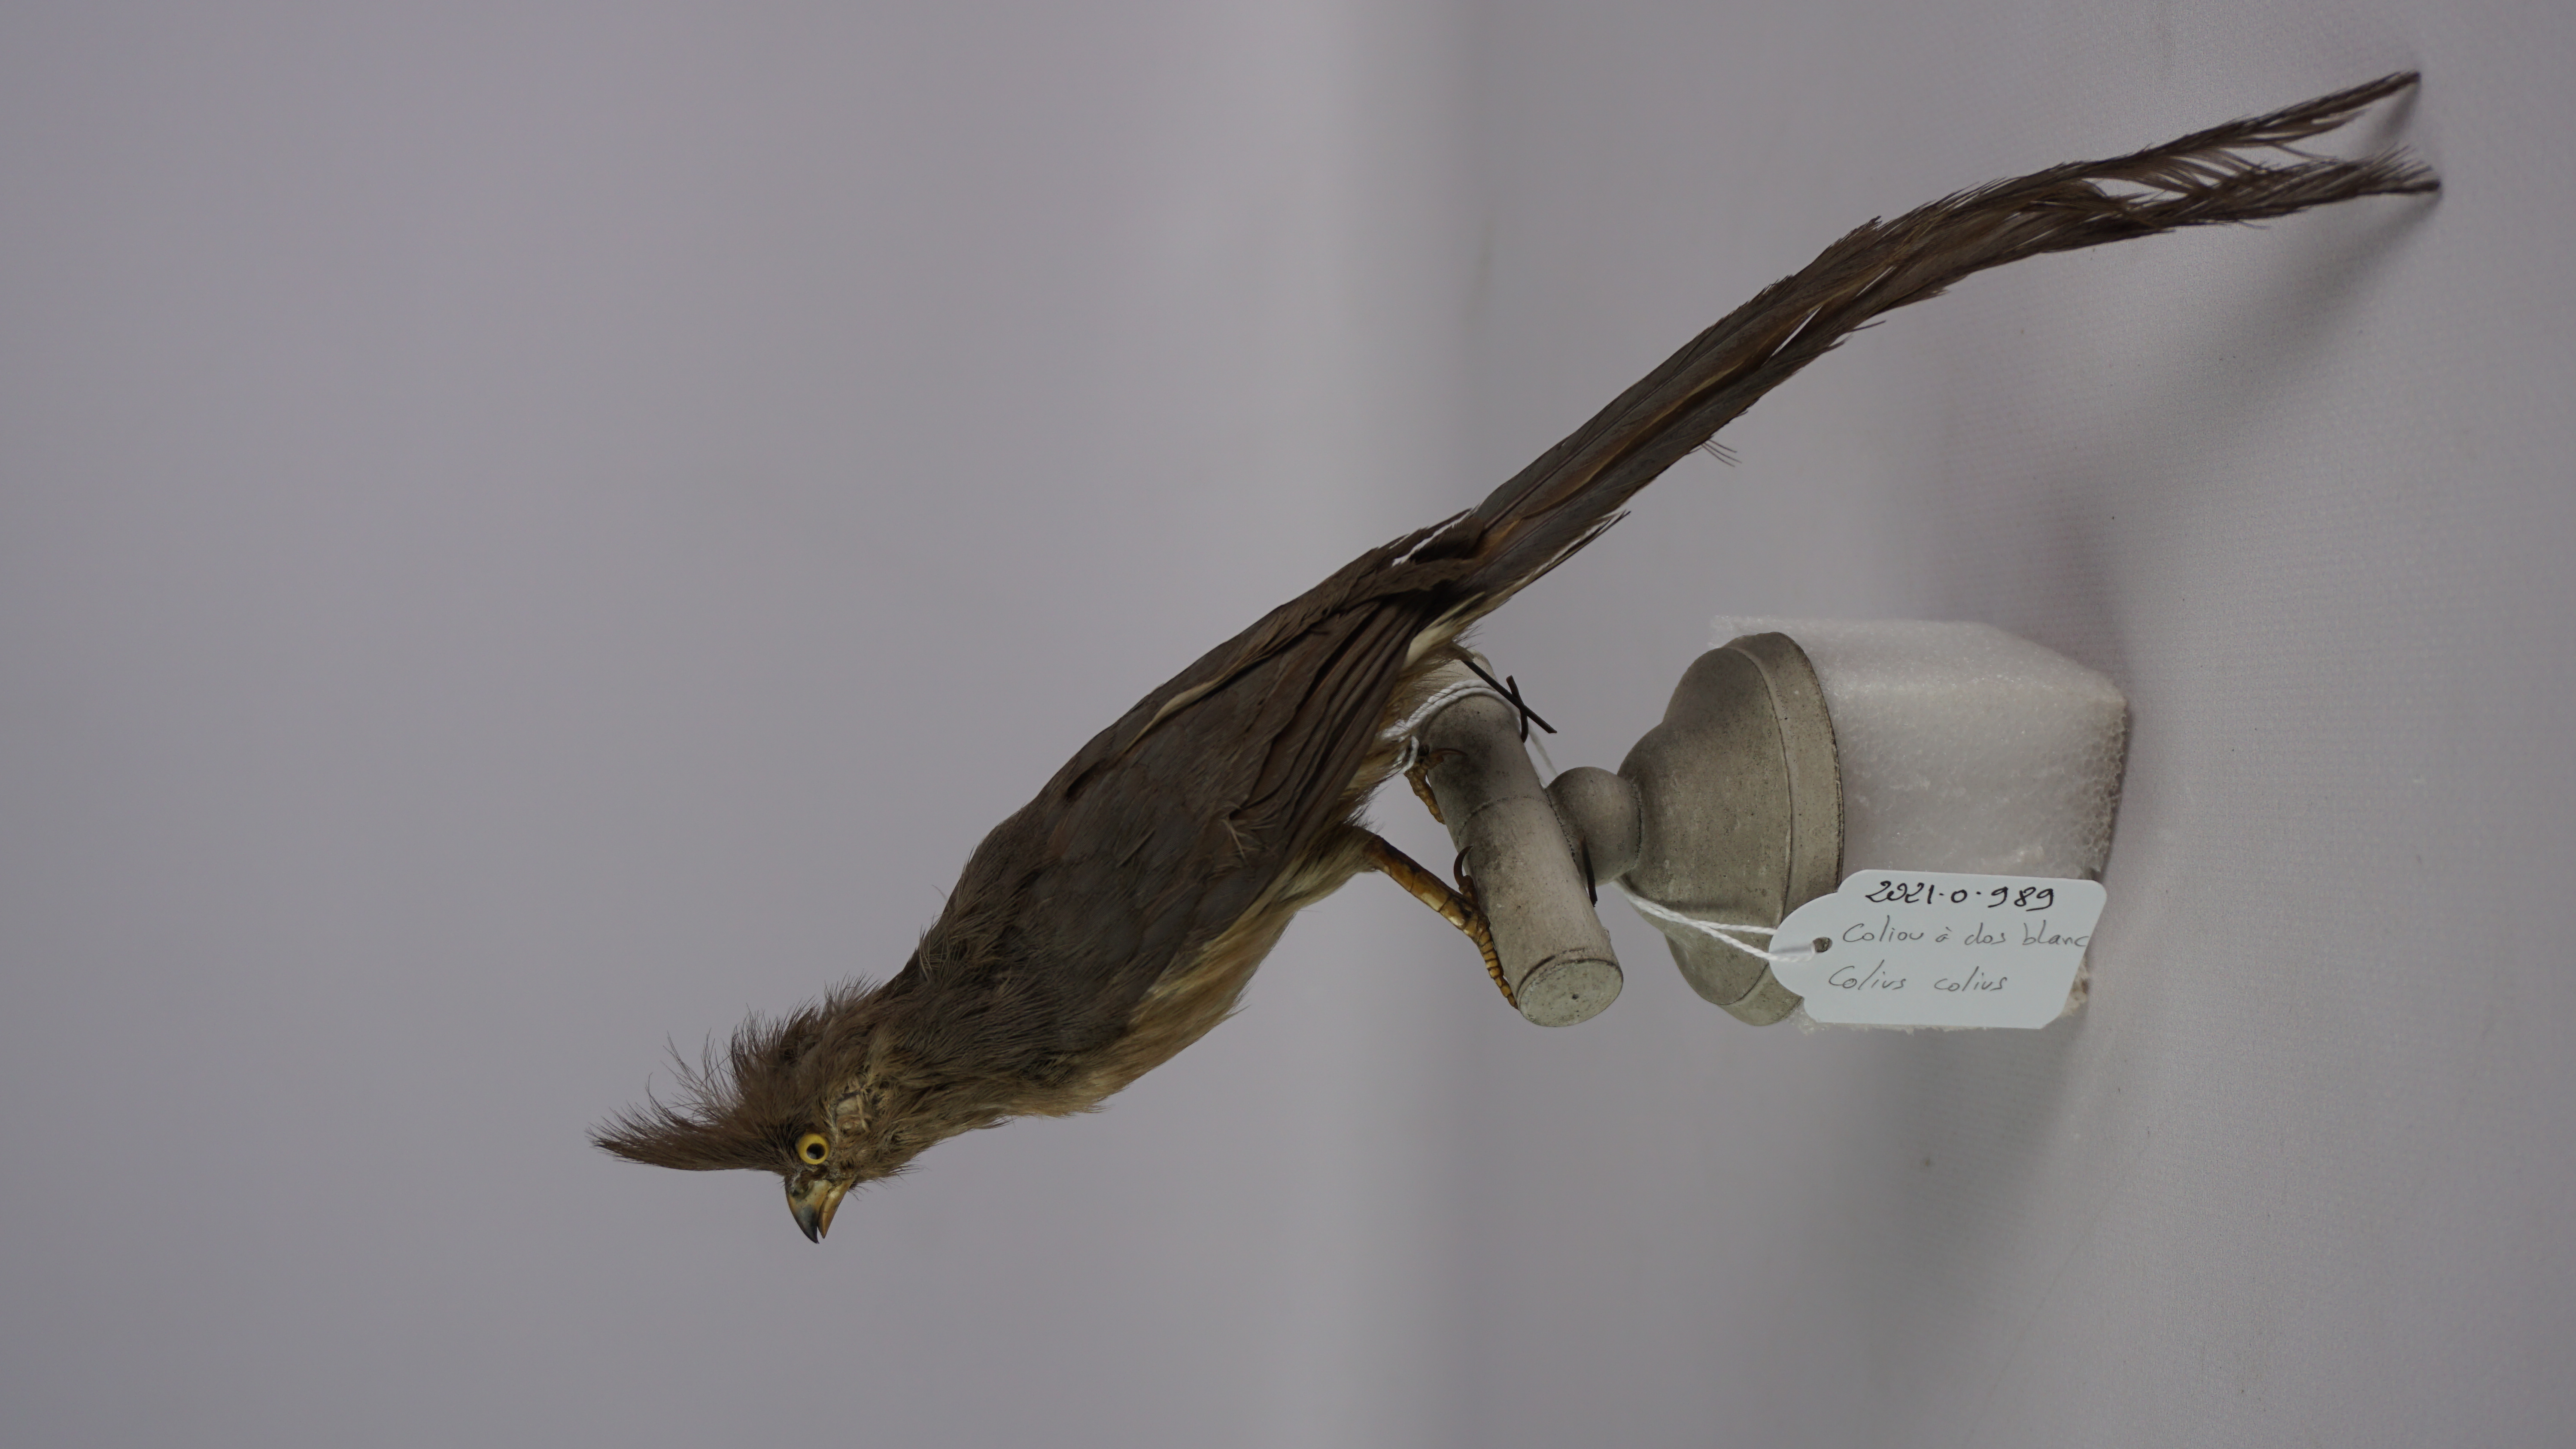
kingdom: Animalia
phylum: Chordata
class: Aves
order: Coliiformes
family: Coliidae
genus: Colius
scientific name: Colius colius
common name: White-backed mousebird
